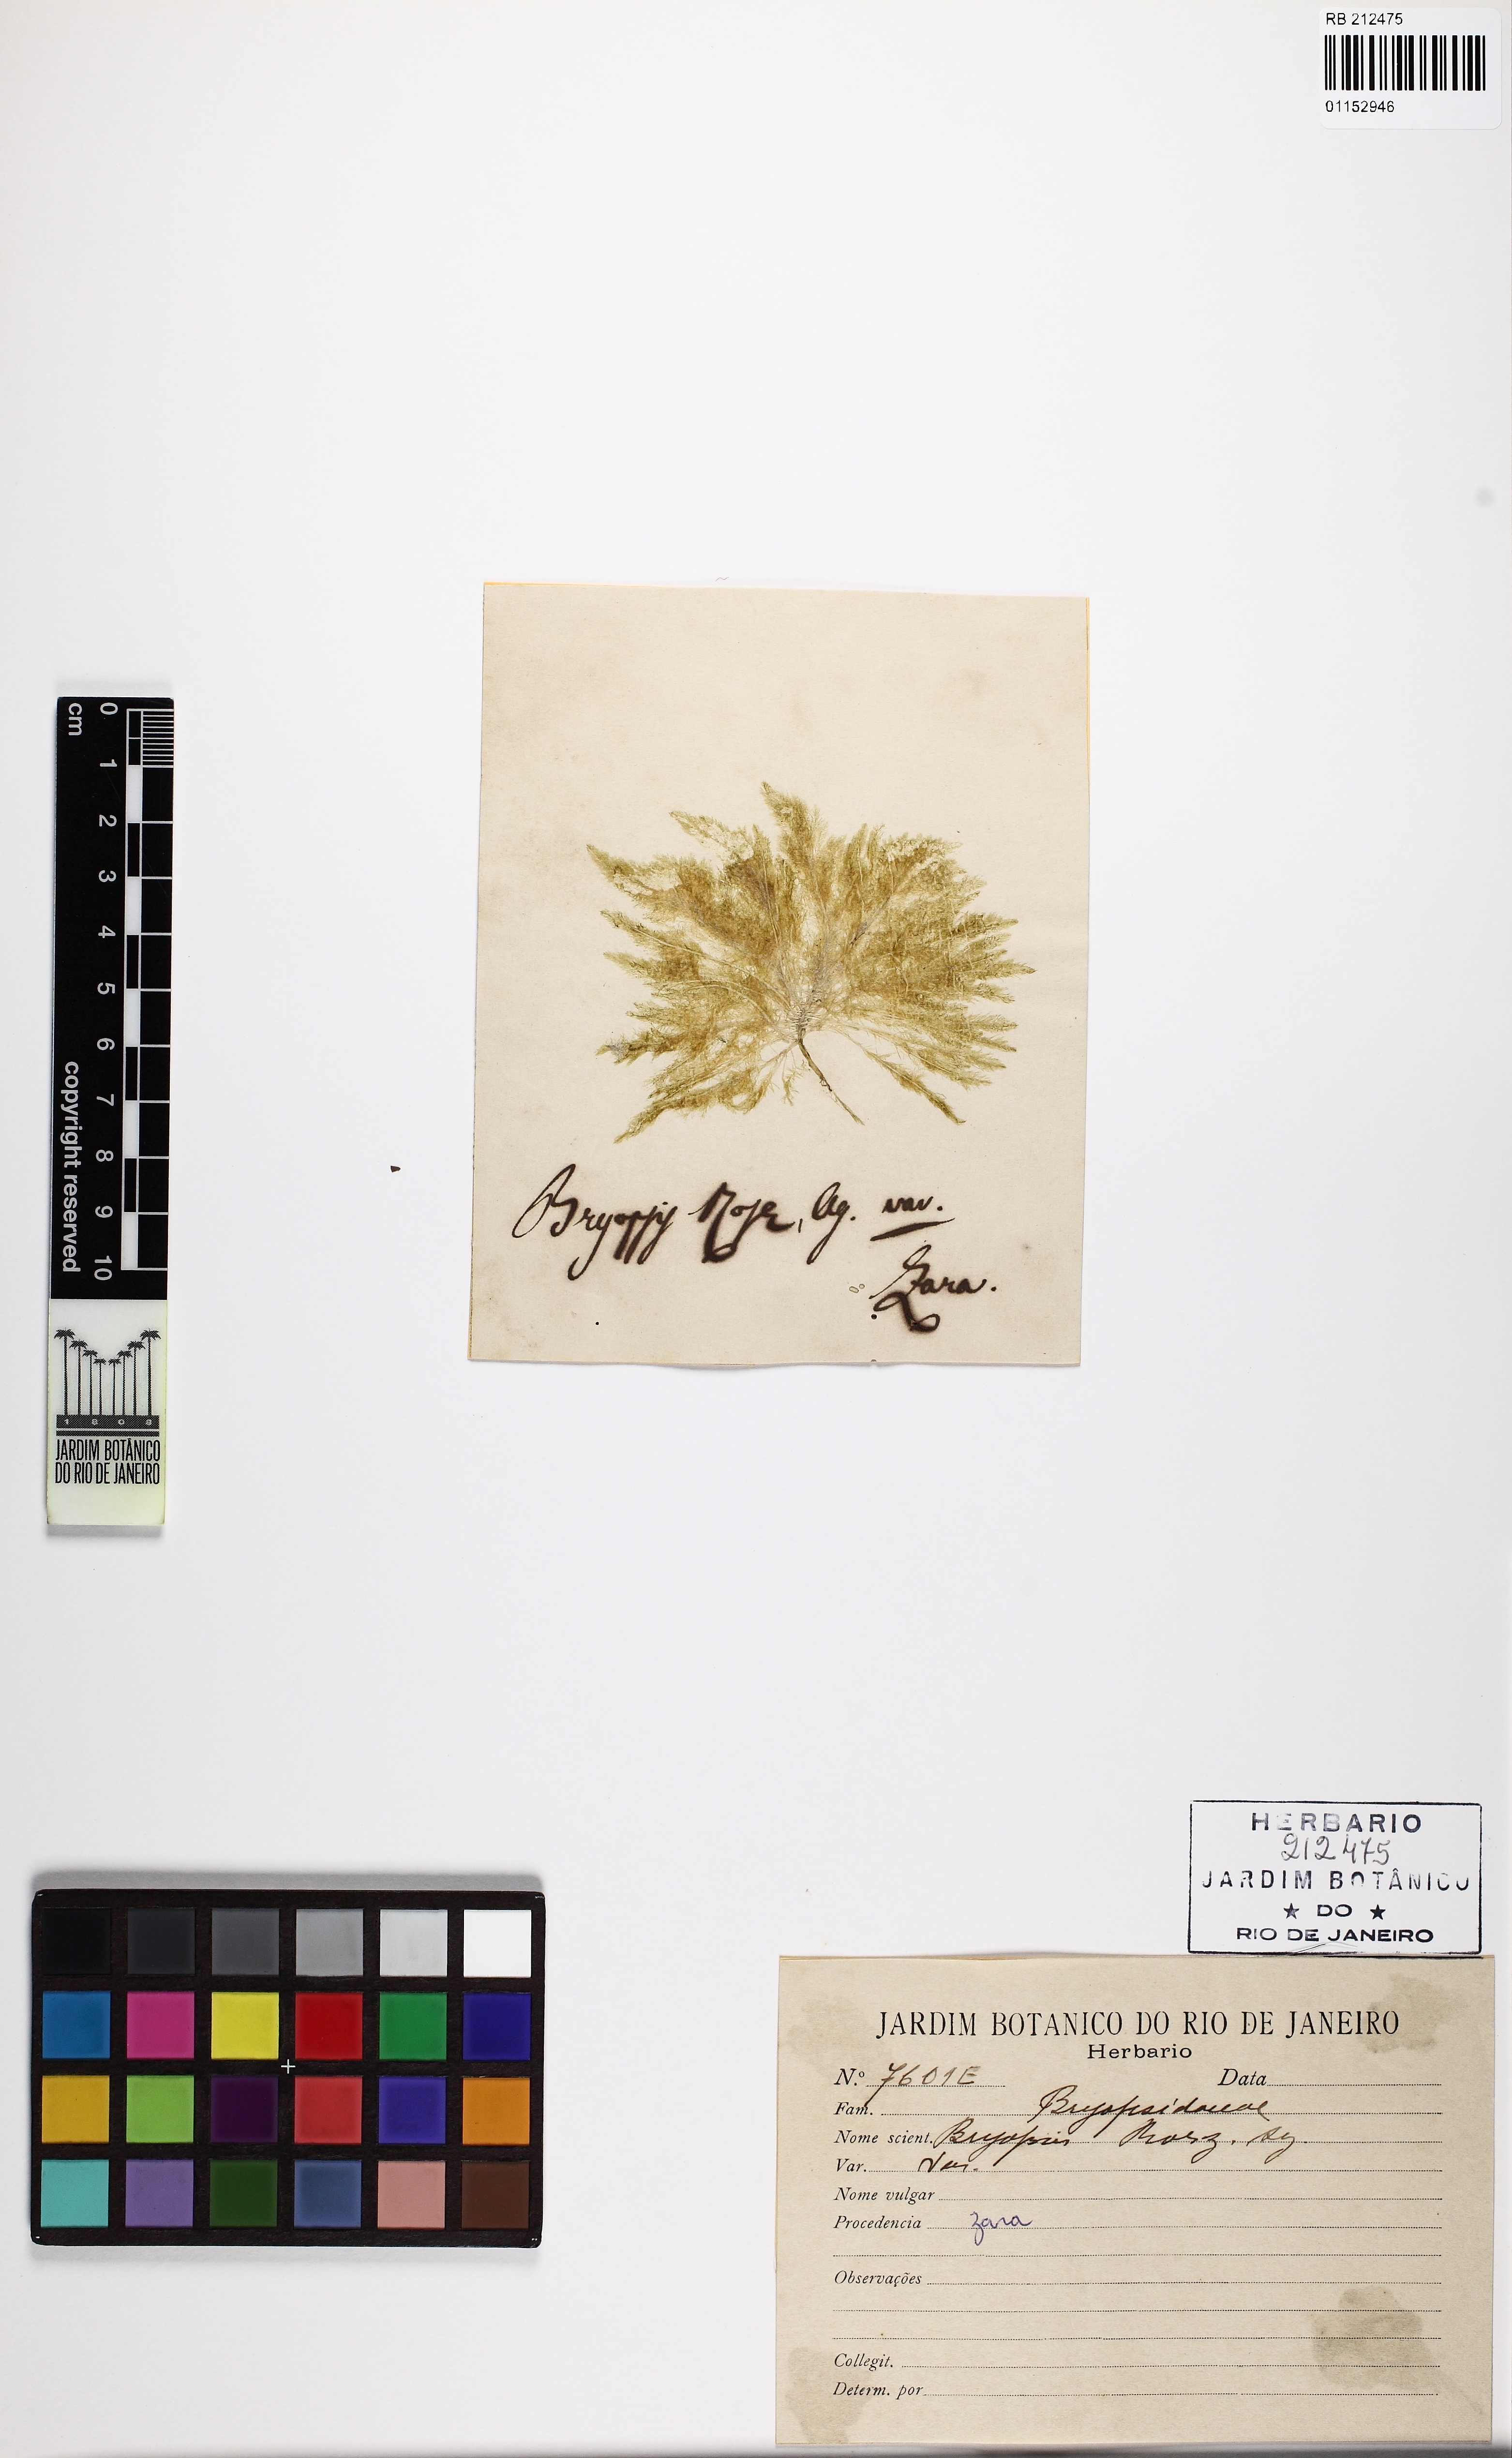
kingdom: Plantae
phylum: Chlorophyta
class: Ulvophyceae
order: Bryopsidales
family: Bryopsidaceae
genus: Bryopsis
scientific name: Bryopsis rosea
